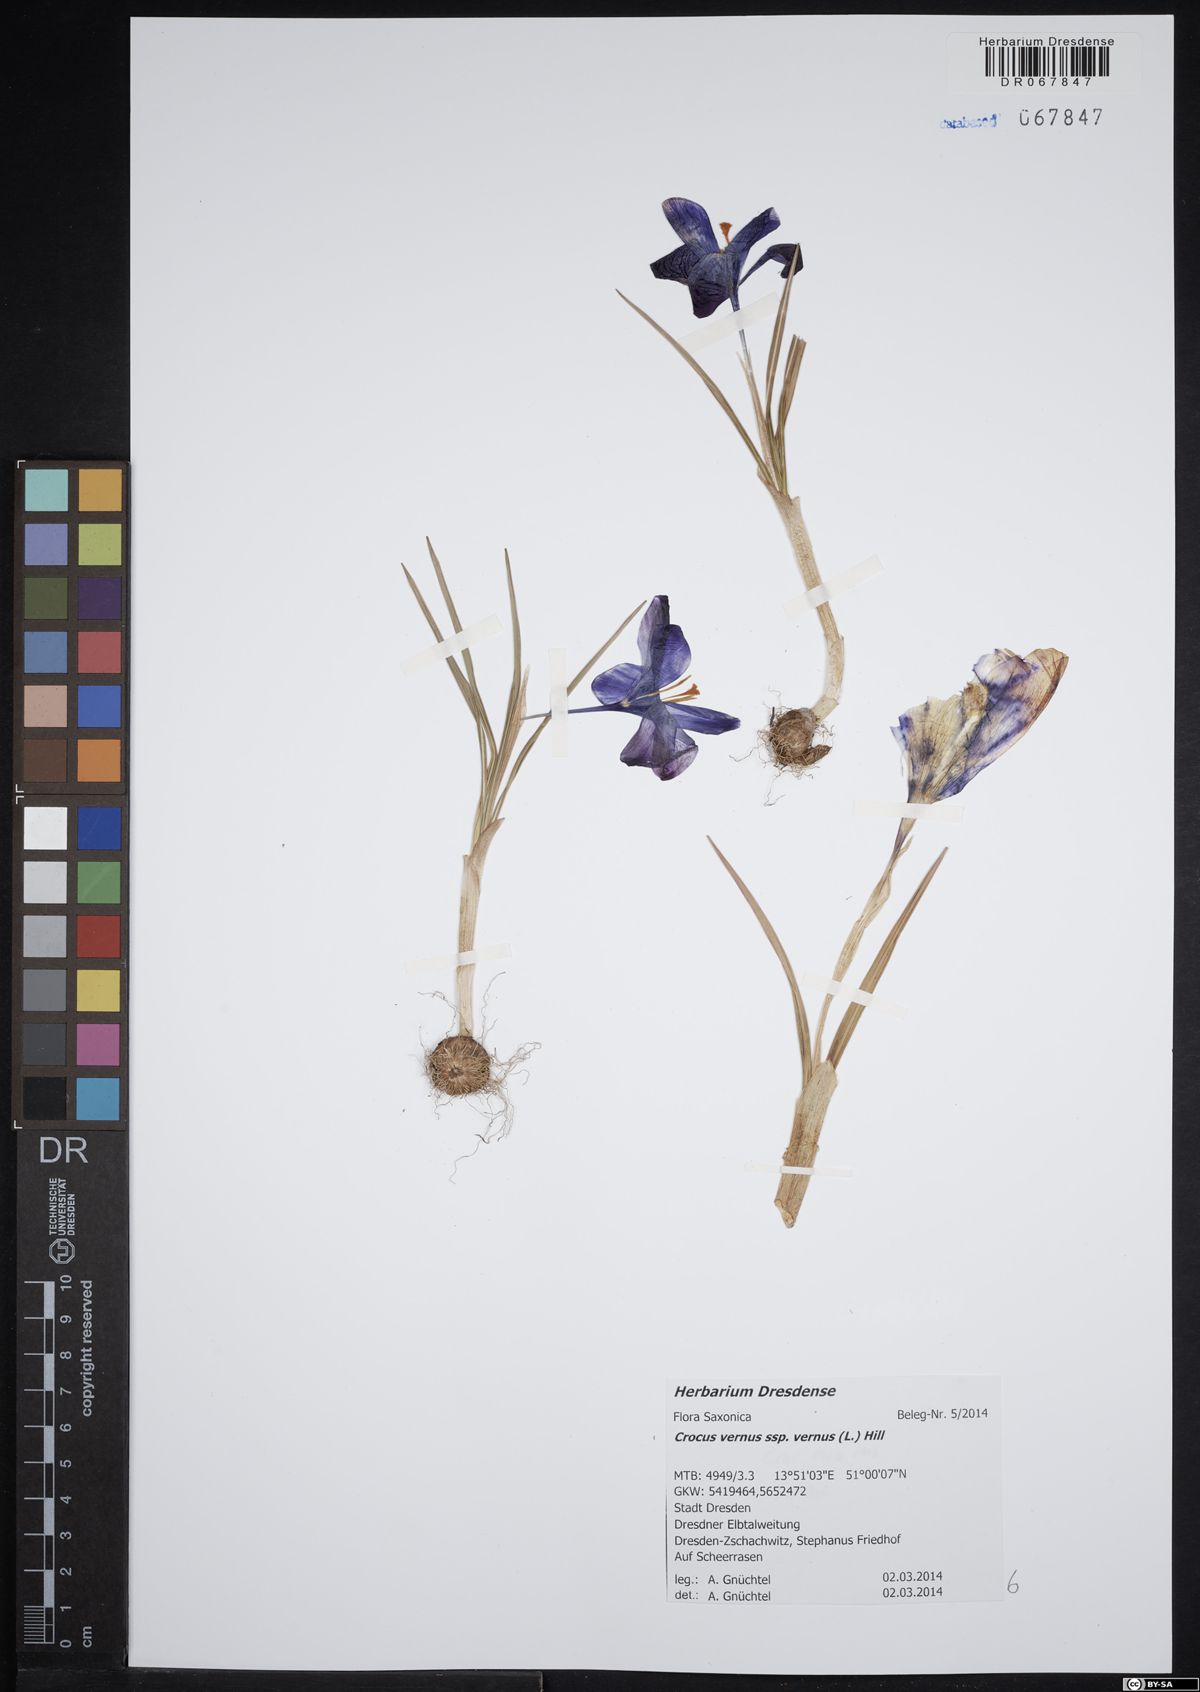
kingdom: Plantae
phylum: Tracheophyta
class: Liliopsida
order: Asparagales
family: Iridaceae
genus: Crocus
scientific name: Crocus vernus
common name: Spring crocus
